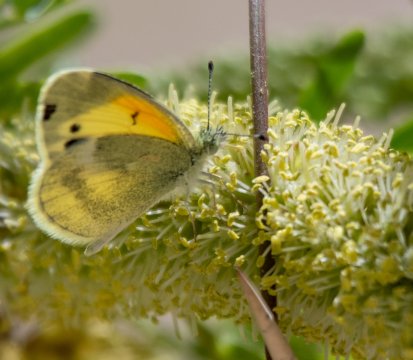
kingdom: Animalia
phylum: Arthropoda
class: Insecta
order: Lepidoptera
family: Pieridae
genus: Nathalis
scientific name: Nathalis iole
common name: Dainty Sulphur
